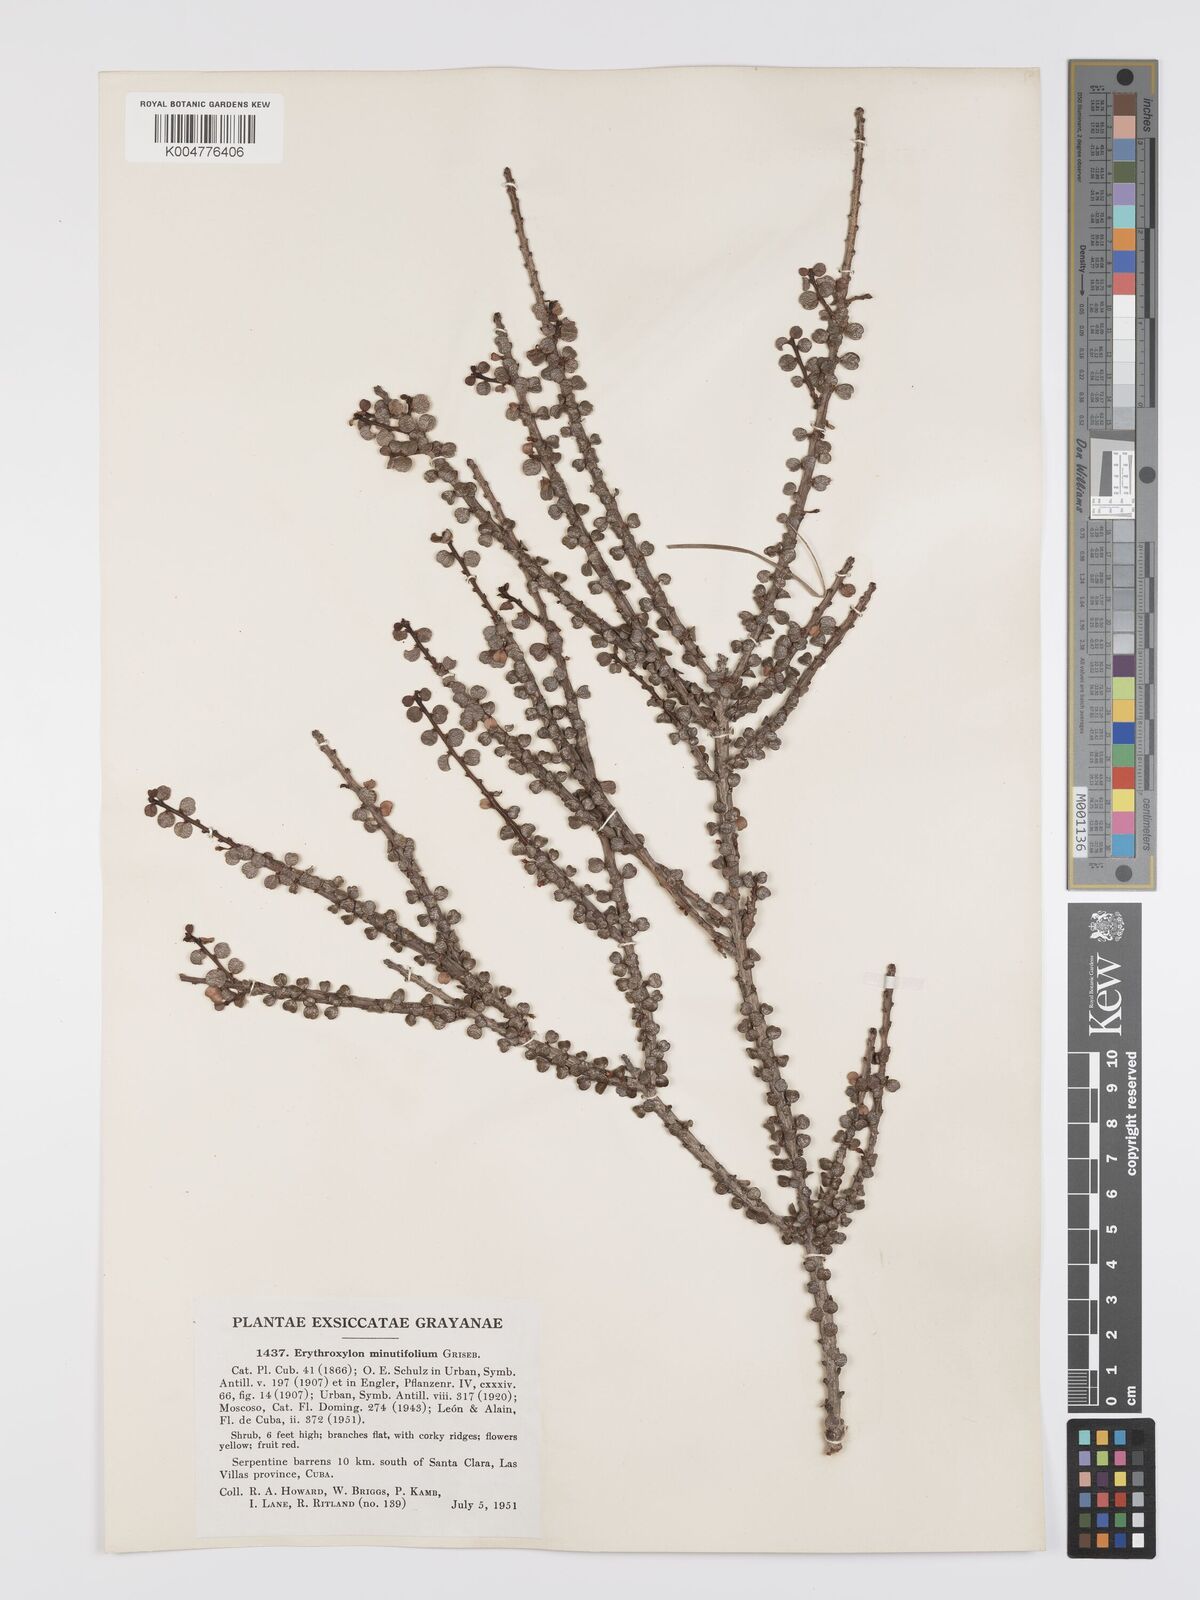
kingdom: Plantae
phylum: Tracheophyta
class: Magnoliopsida
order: Malpighiales
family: Erythroxylaceae
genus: Erythroxylum
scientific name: Erythroxylum minutifolium
